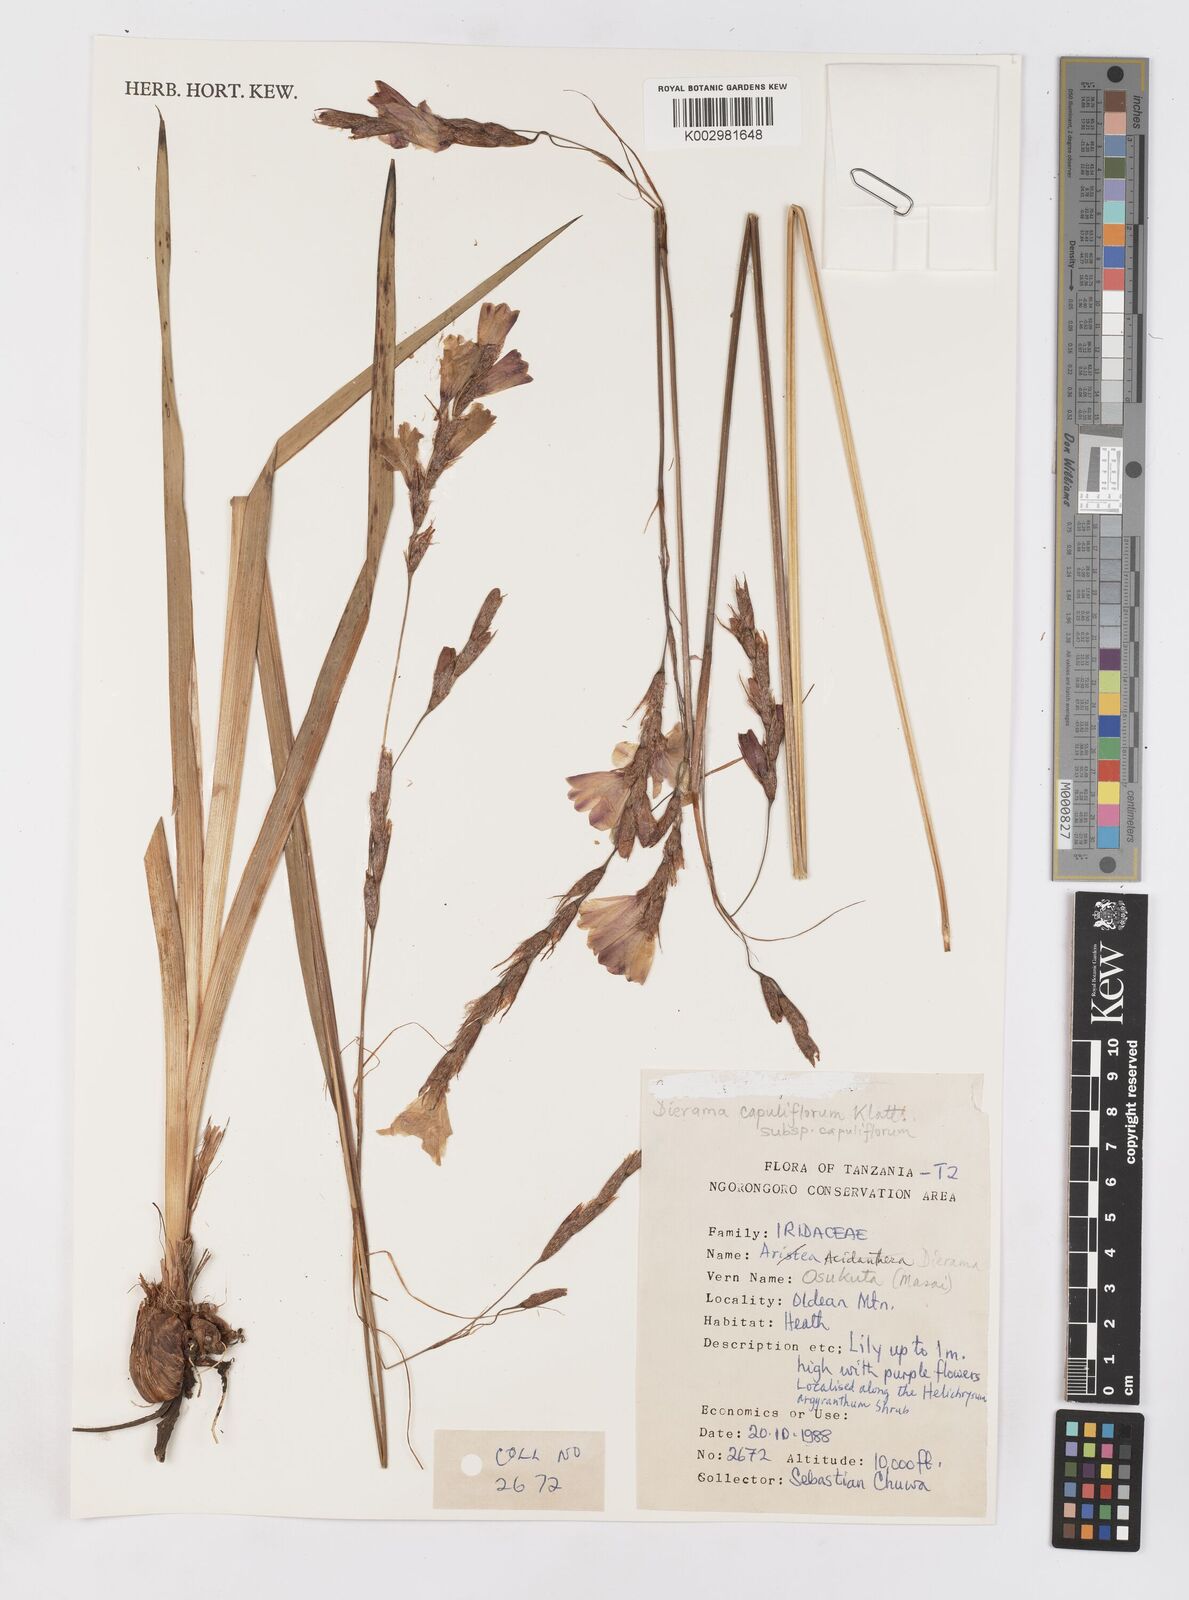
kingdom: Plantae
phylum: Tracheophyta
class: Liliopsida
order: Asparagales
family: Iridaceae
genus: Dierama
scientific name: Dierama cupuliflorum
